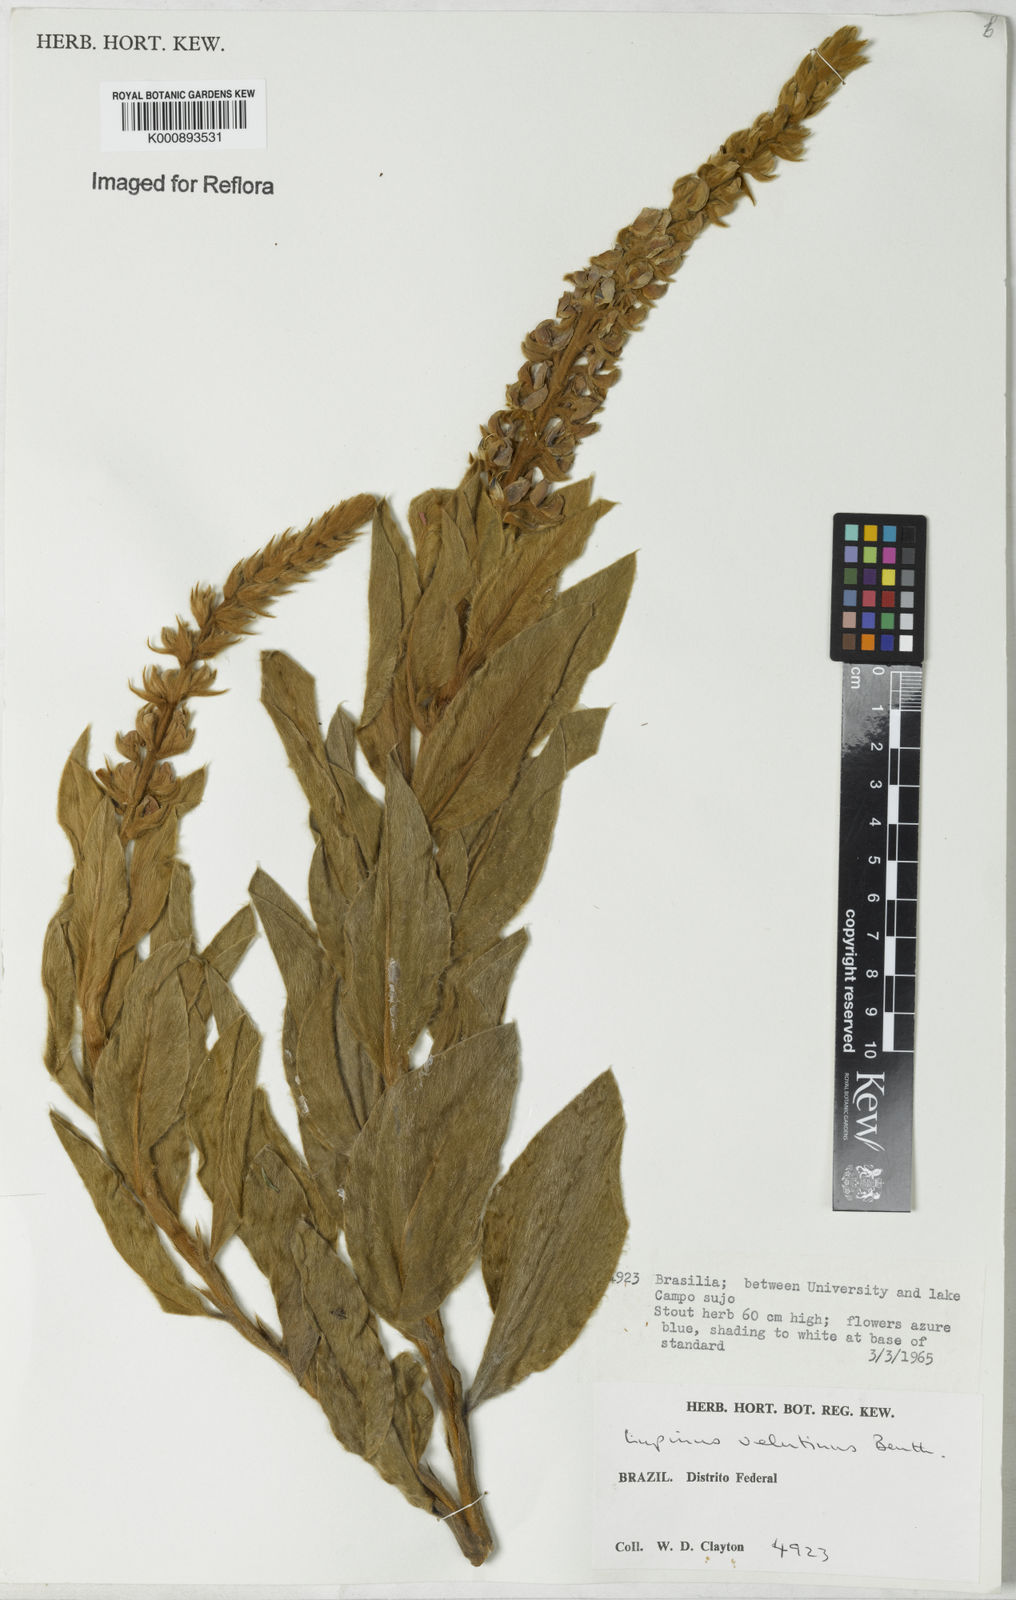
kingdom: Plantae
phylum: Tracheophyta
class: Magnoliopsida
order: Fabales
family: Fabaceae
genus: Lupinus
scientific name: Lupinus velutinus
